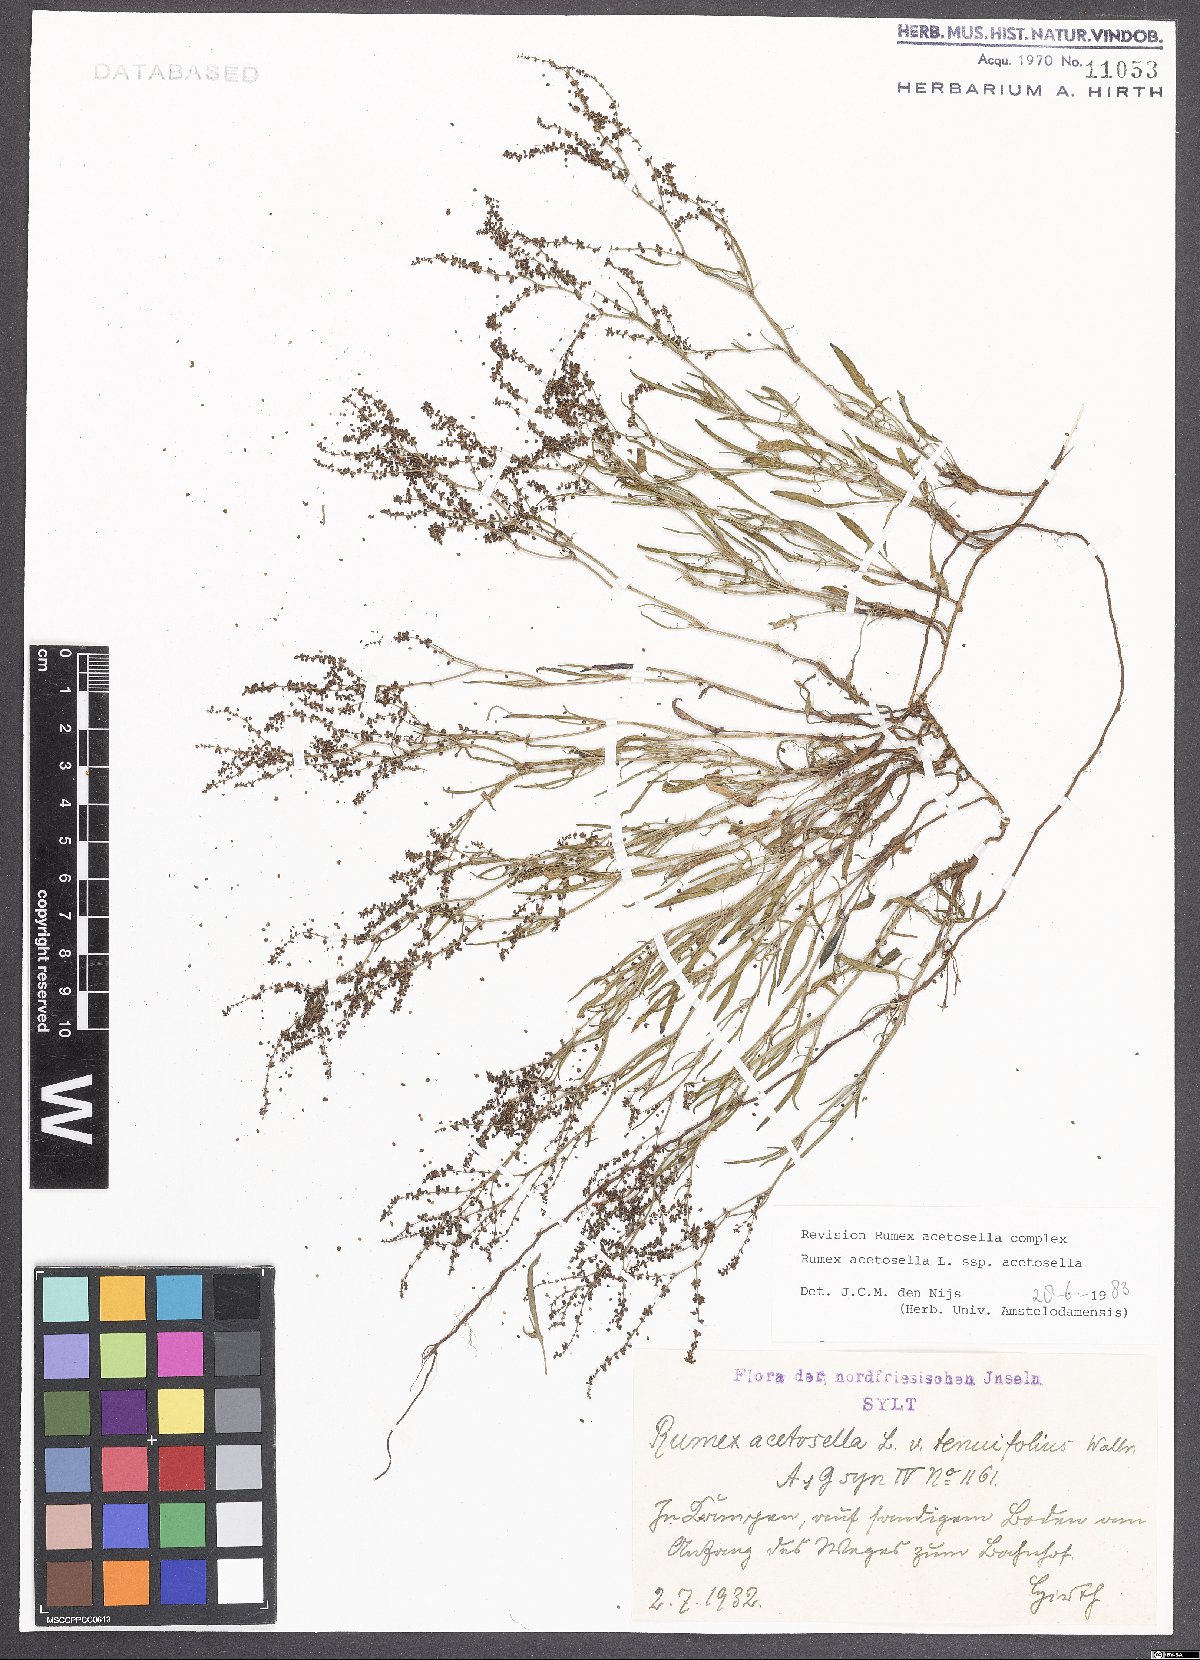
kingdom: Plantae
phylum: Tracheophyta
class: Magnoliopsida
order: Caryophyllales
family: Polygonaceae
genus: Rumex
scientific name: Rumex acetosella
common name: Common sheep sorrel
